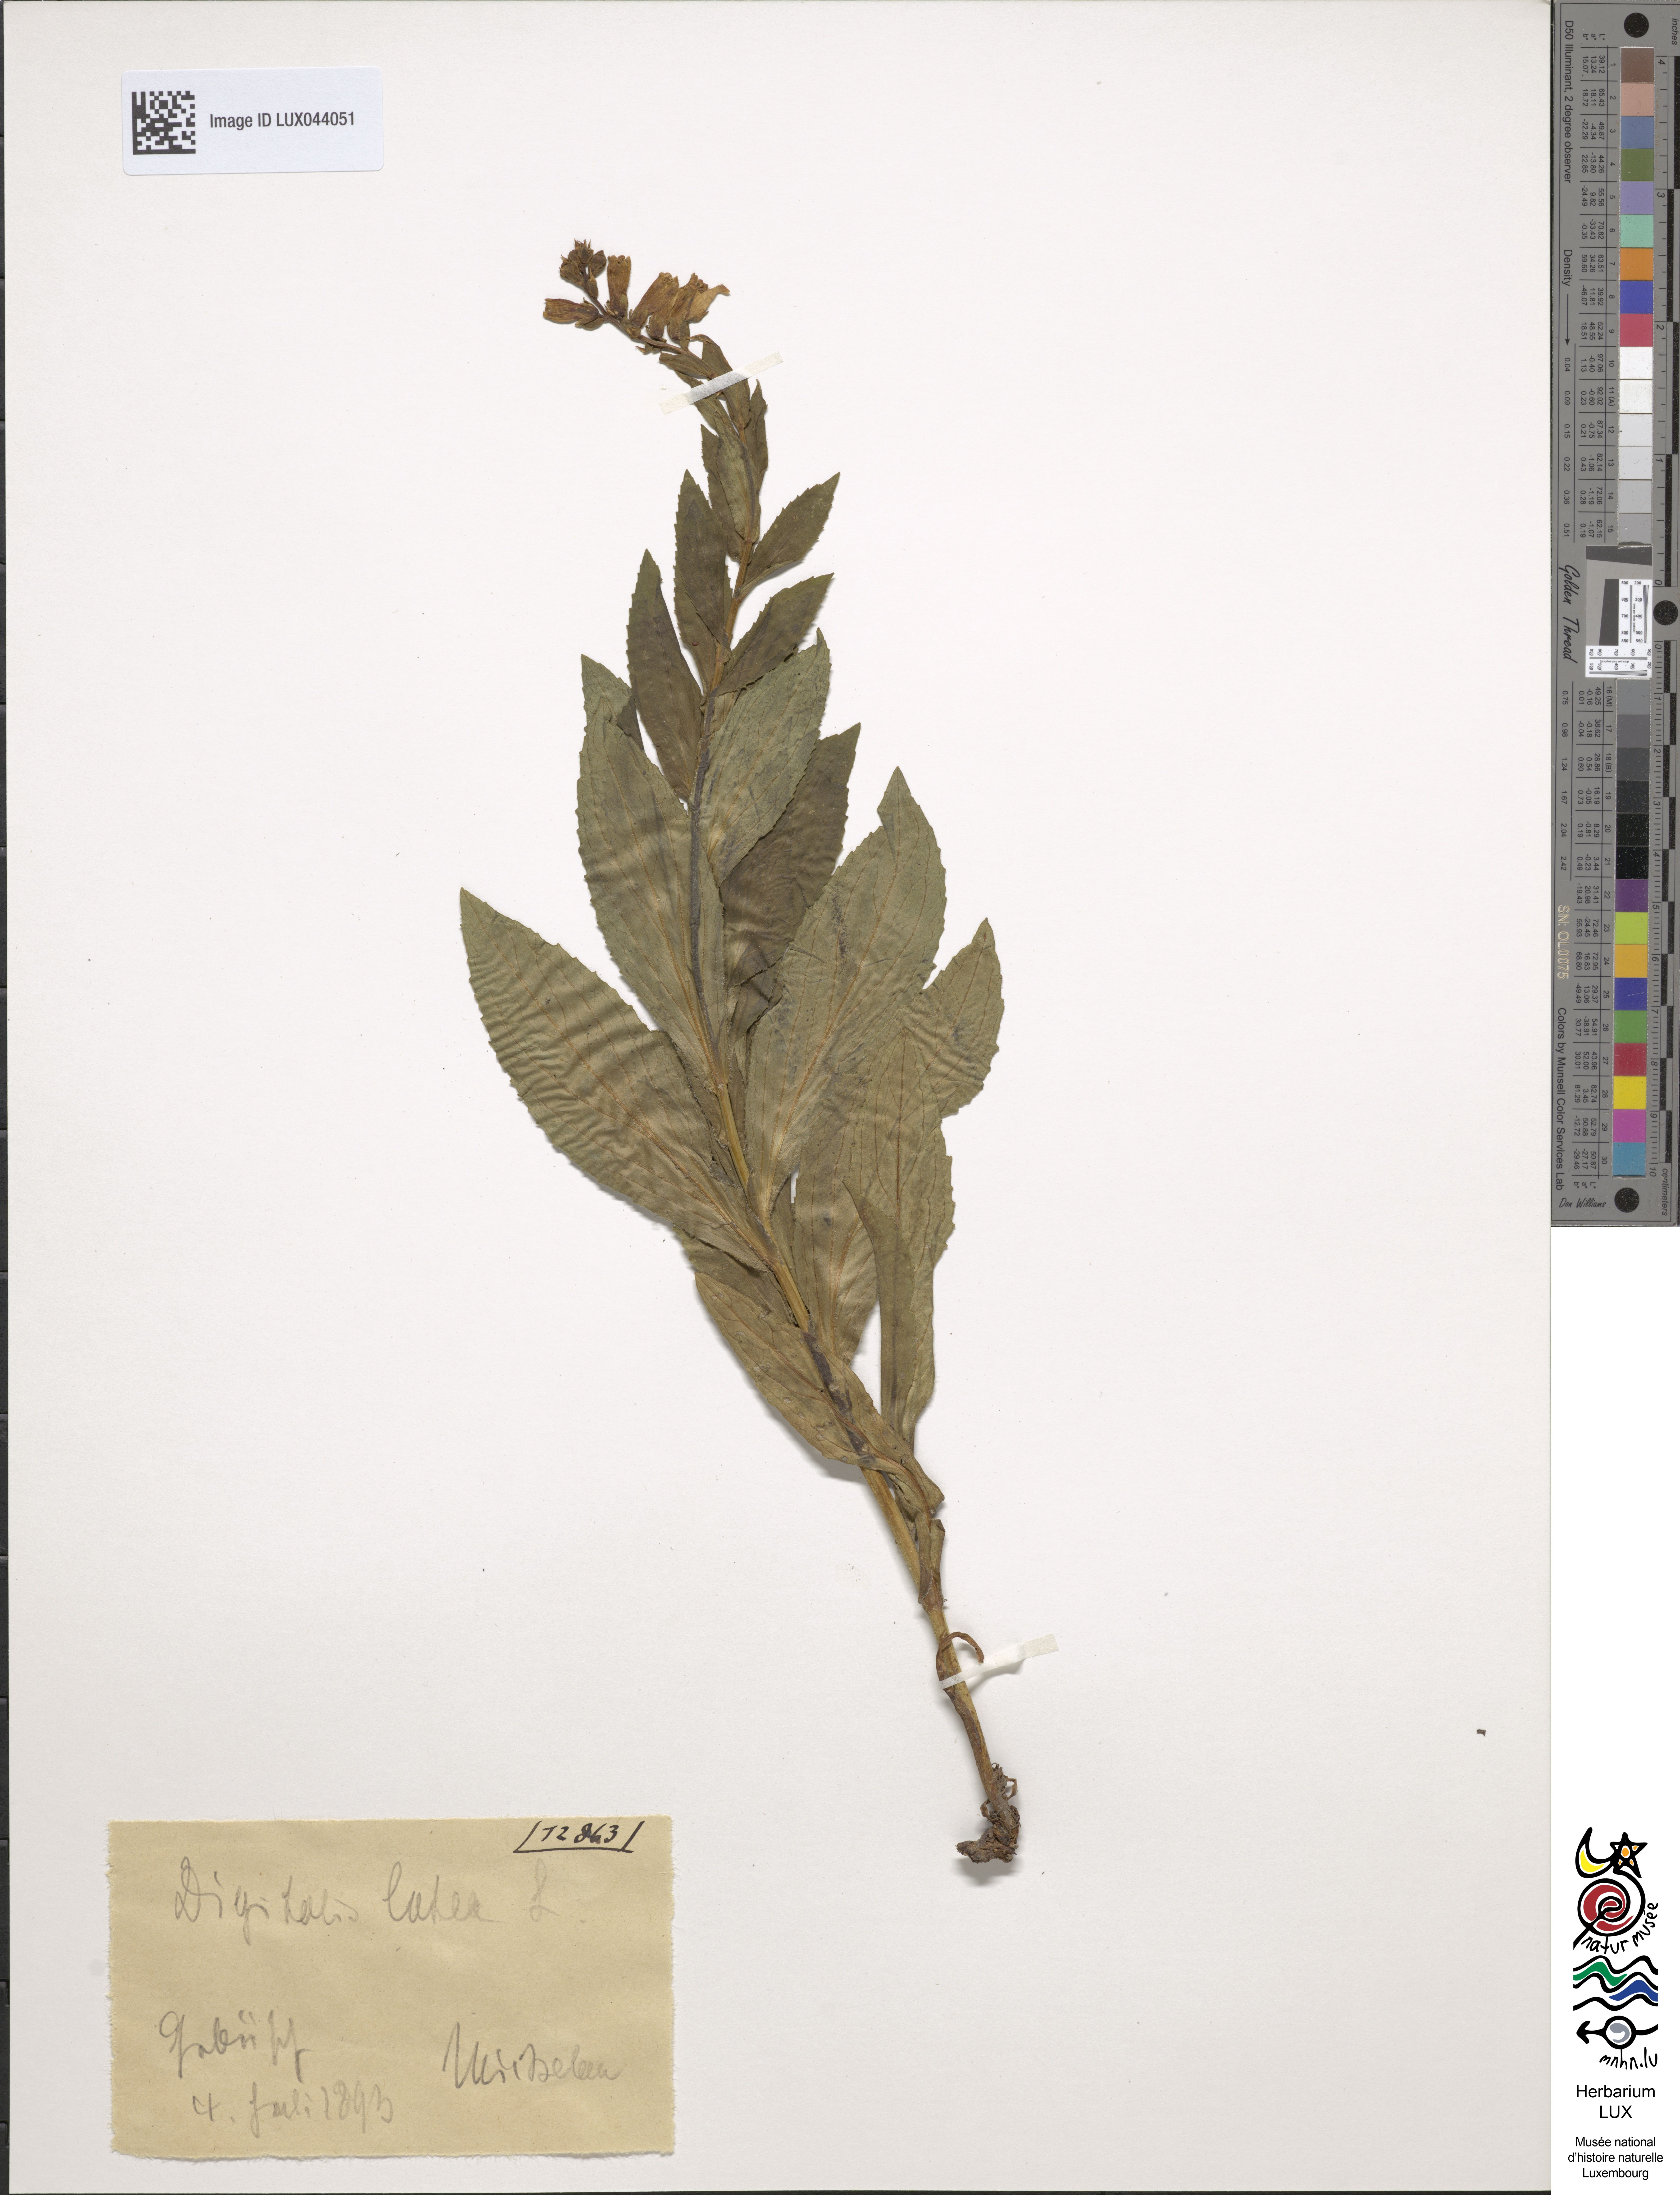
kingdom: Plantae
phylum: Tracheophyta
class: Magnoliopsida
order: Lamiales
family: Plantaginaceae
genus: Digitalis
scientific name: Digitalis lutea
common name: Straw foxglove
